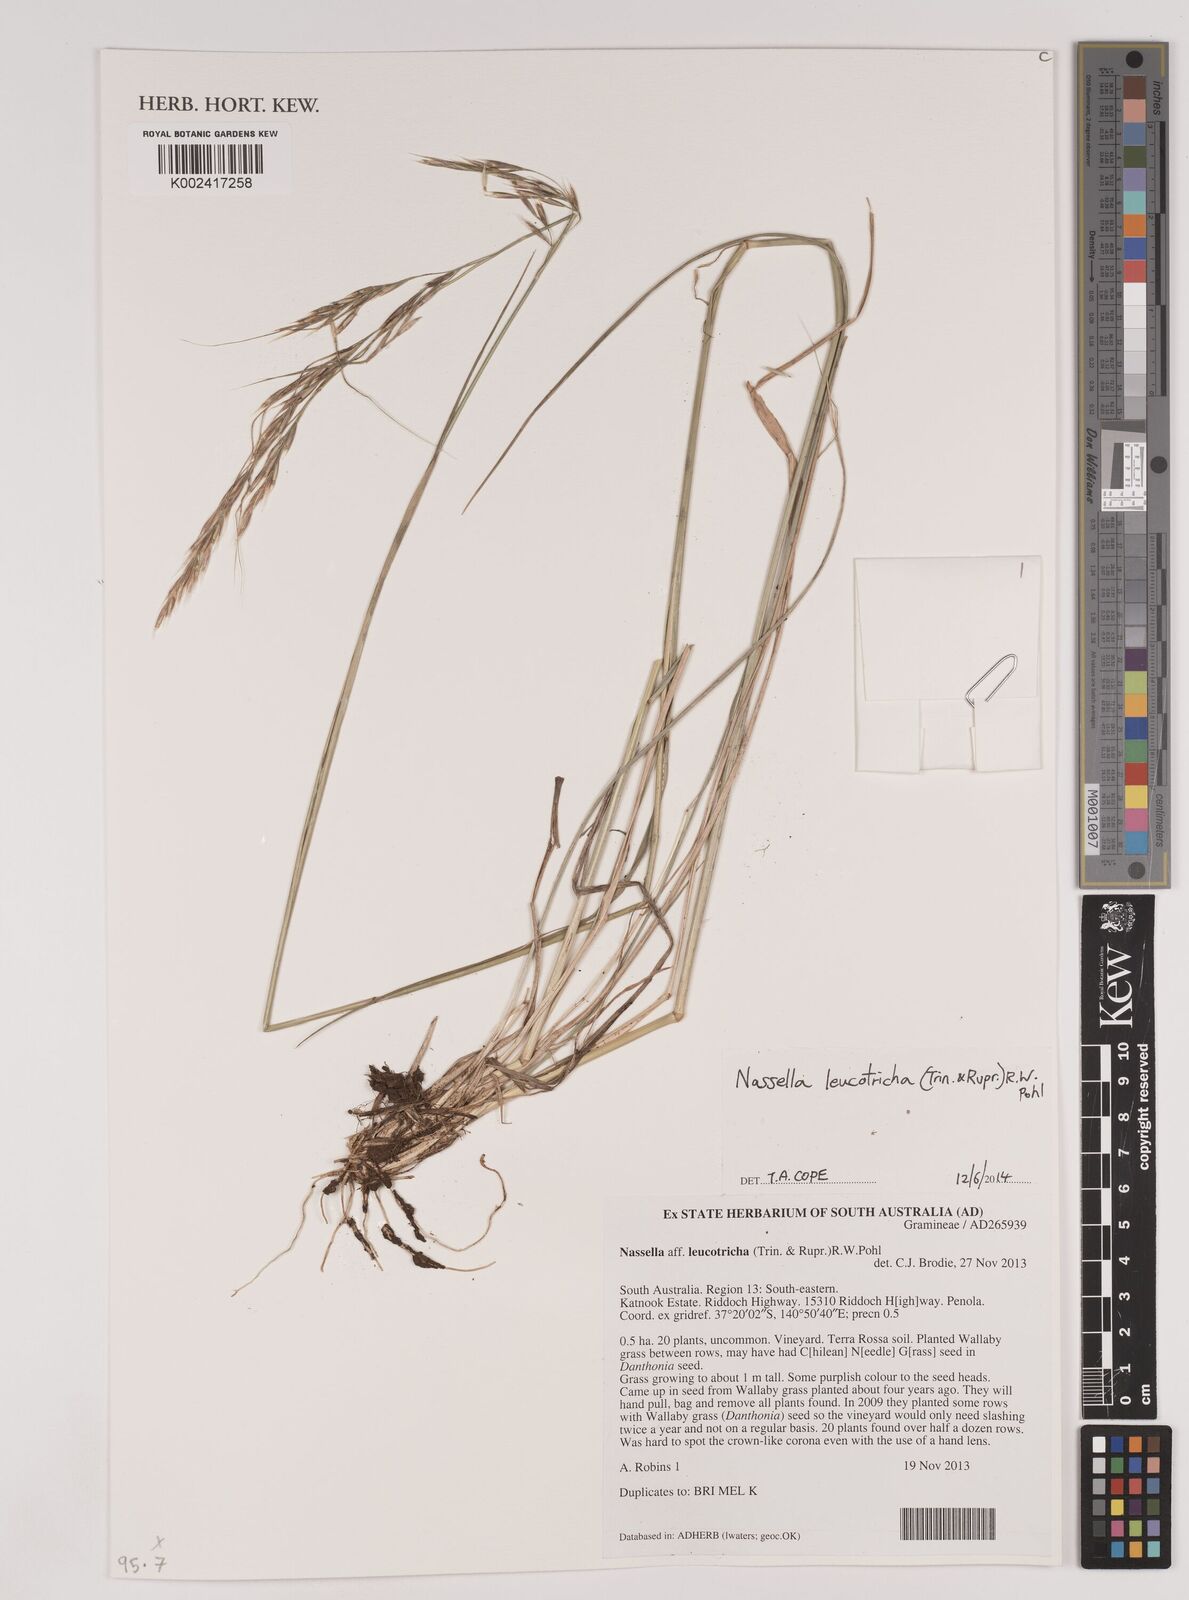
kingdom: Plantae
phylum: Tracheophyta
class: Liliopsida
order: Poales
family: Poaceae
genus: Nassella
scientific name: Nassella leucotricha
